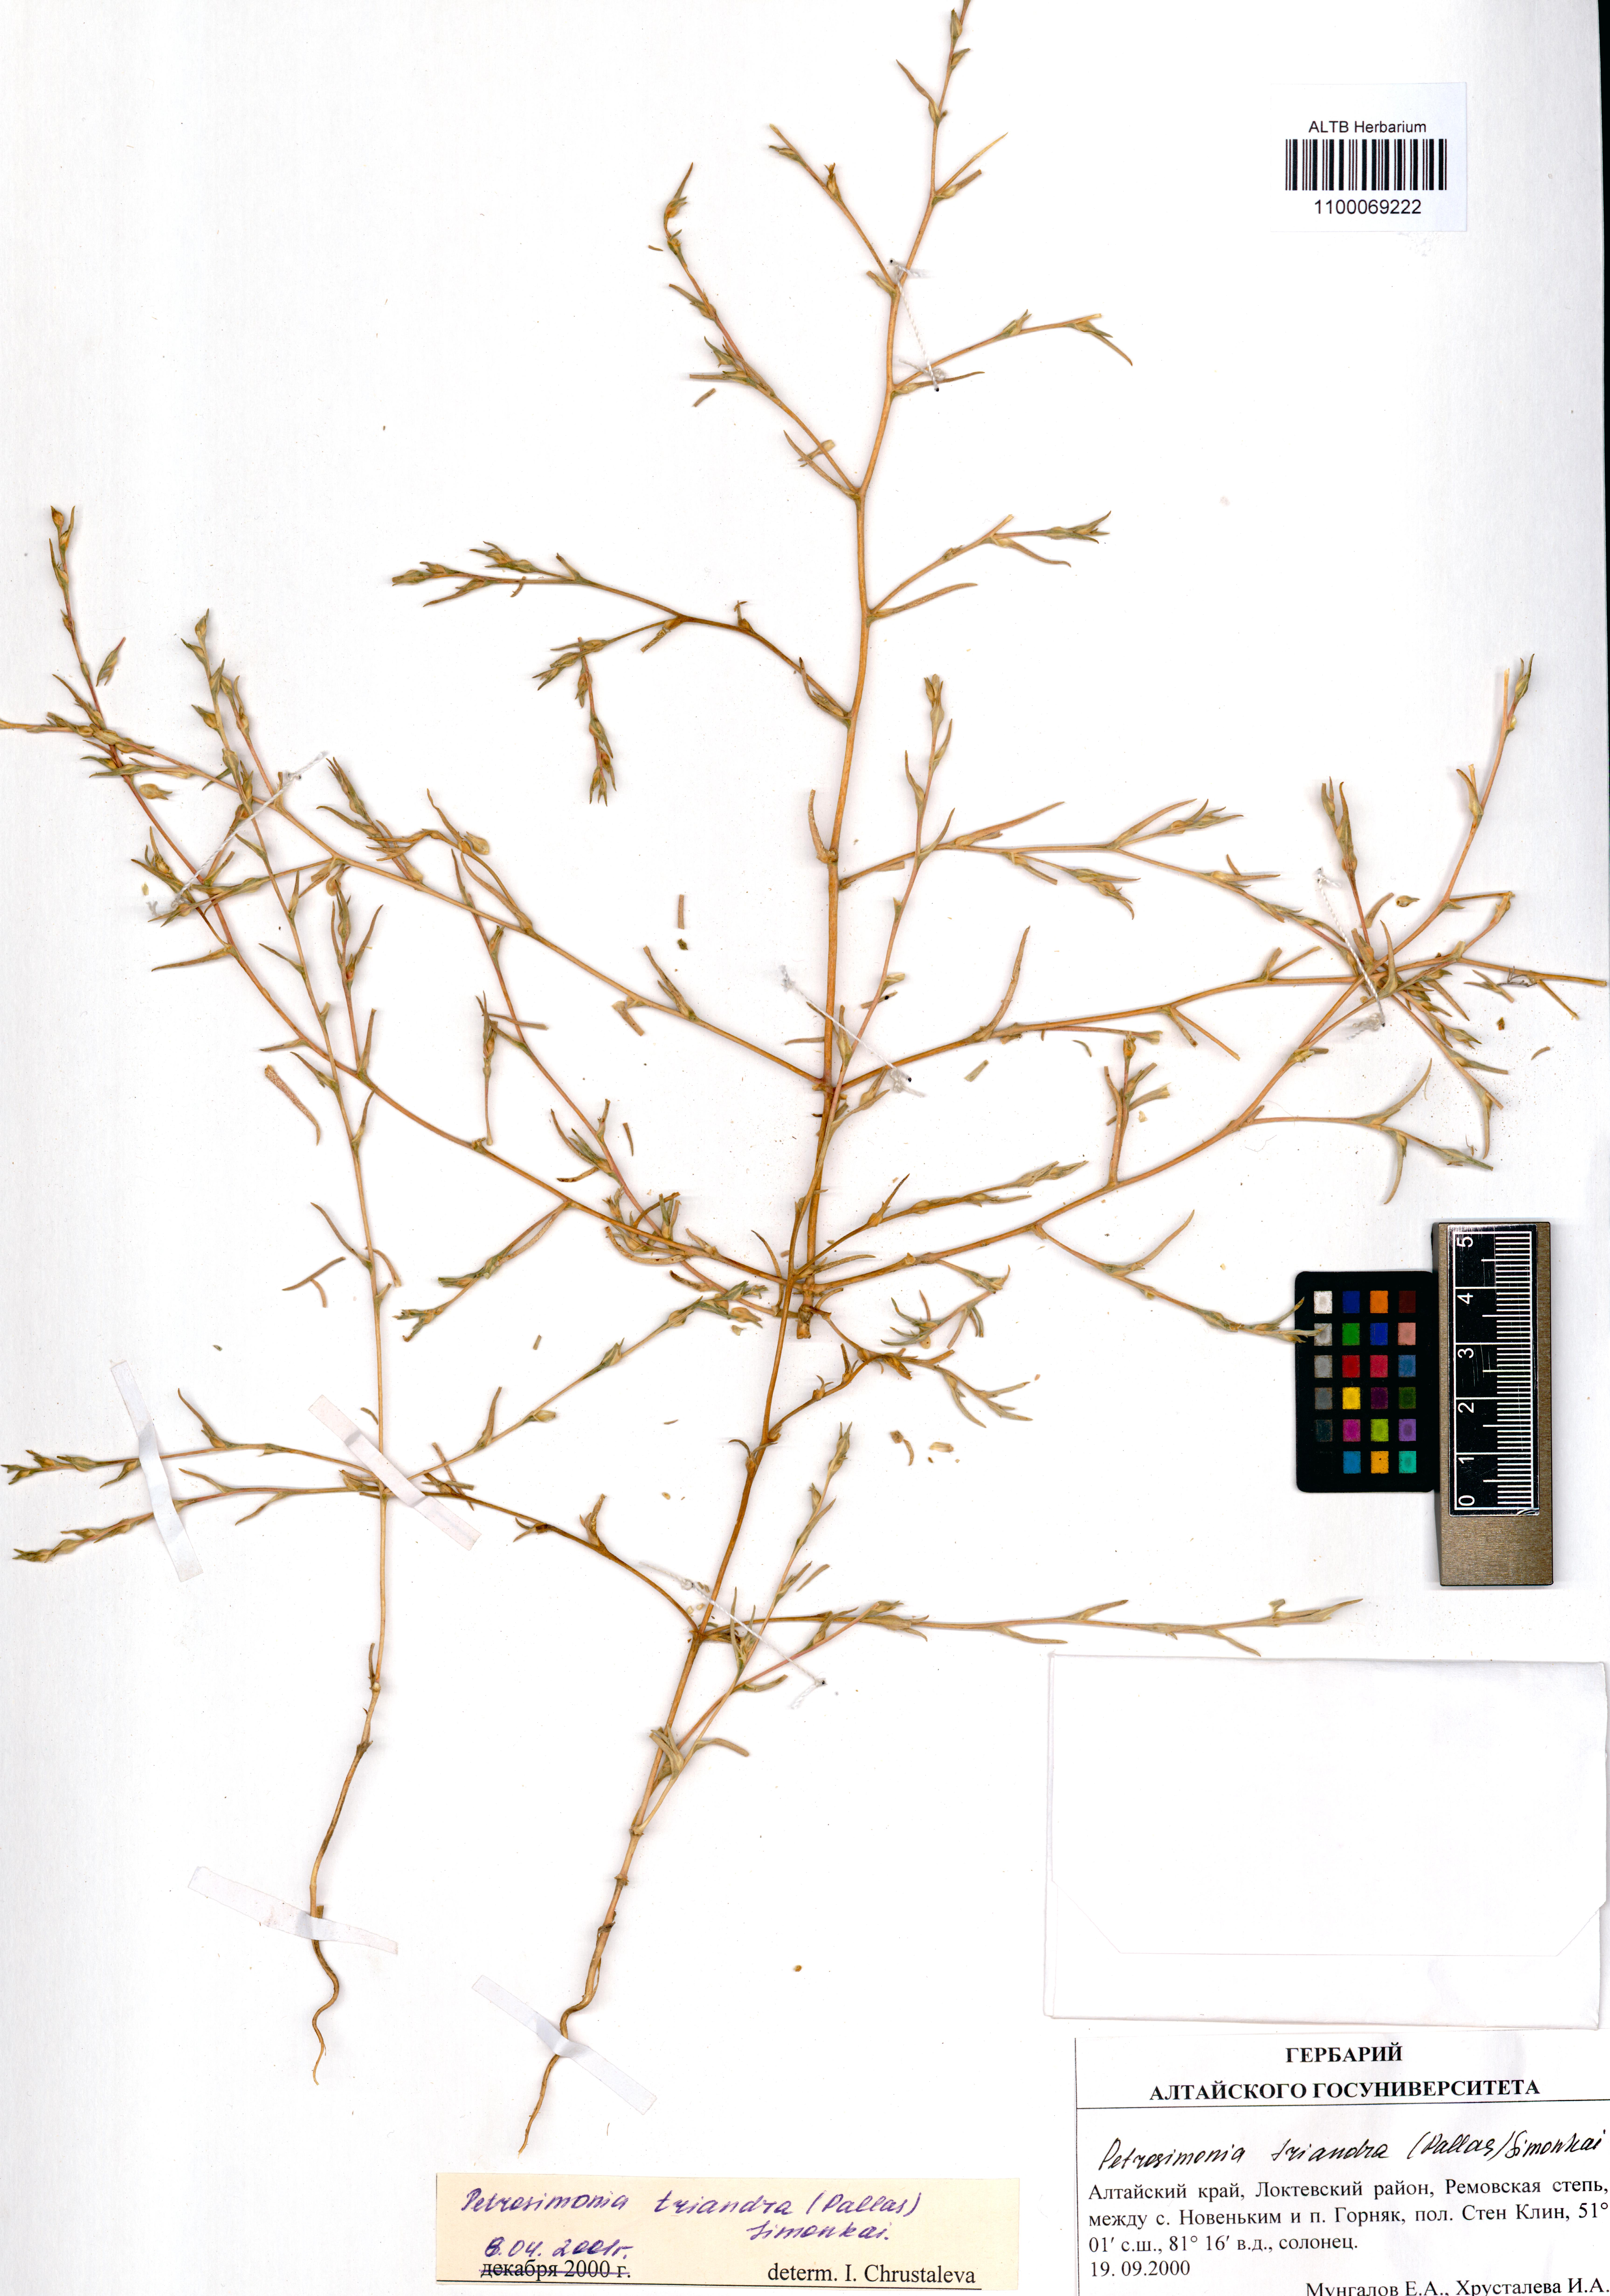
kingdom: Plantae
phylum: Tracheophyta
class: Magnoliopsida
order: Caryophyllales
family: Amaranthaceae
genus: Petrosimonia
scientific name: Petrosimonia triandra
